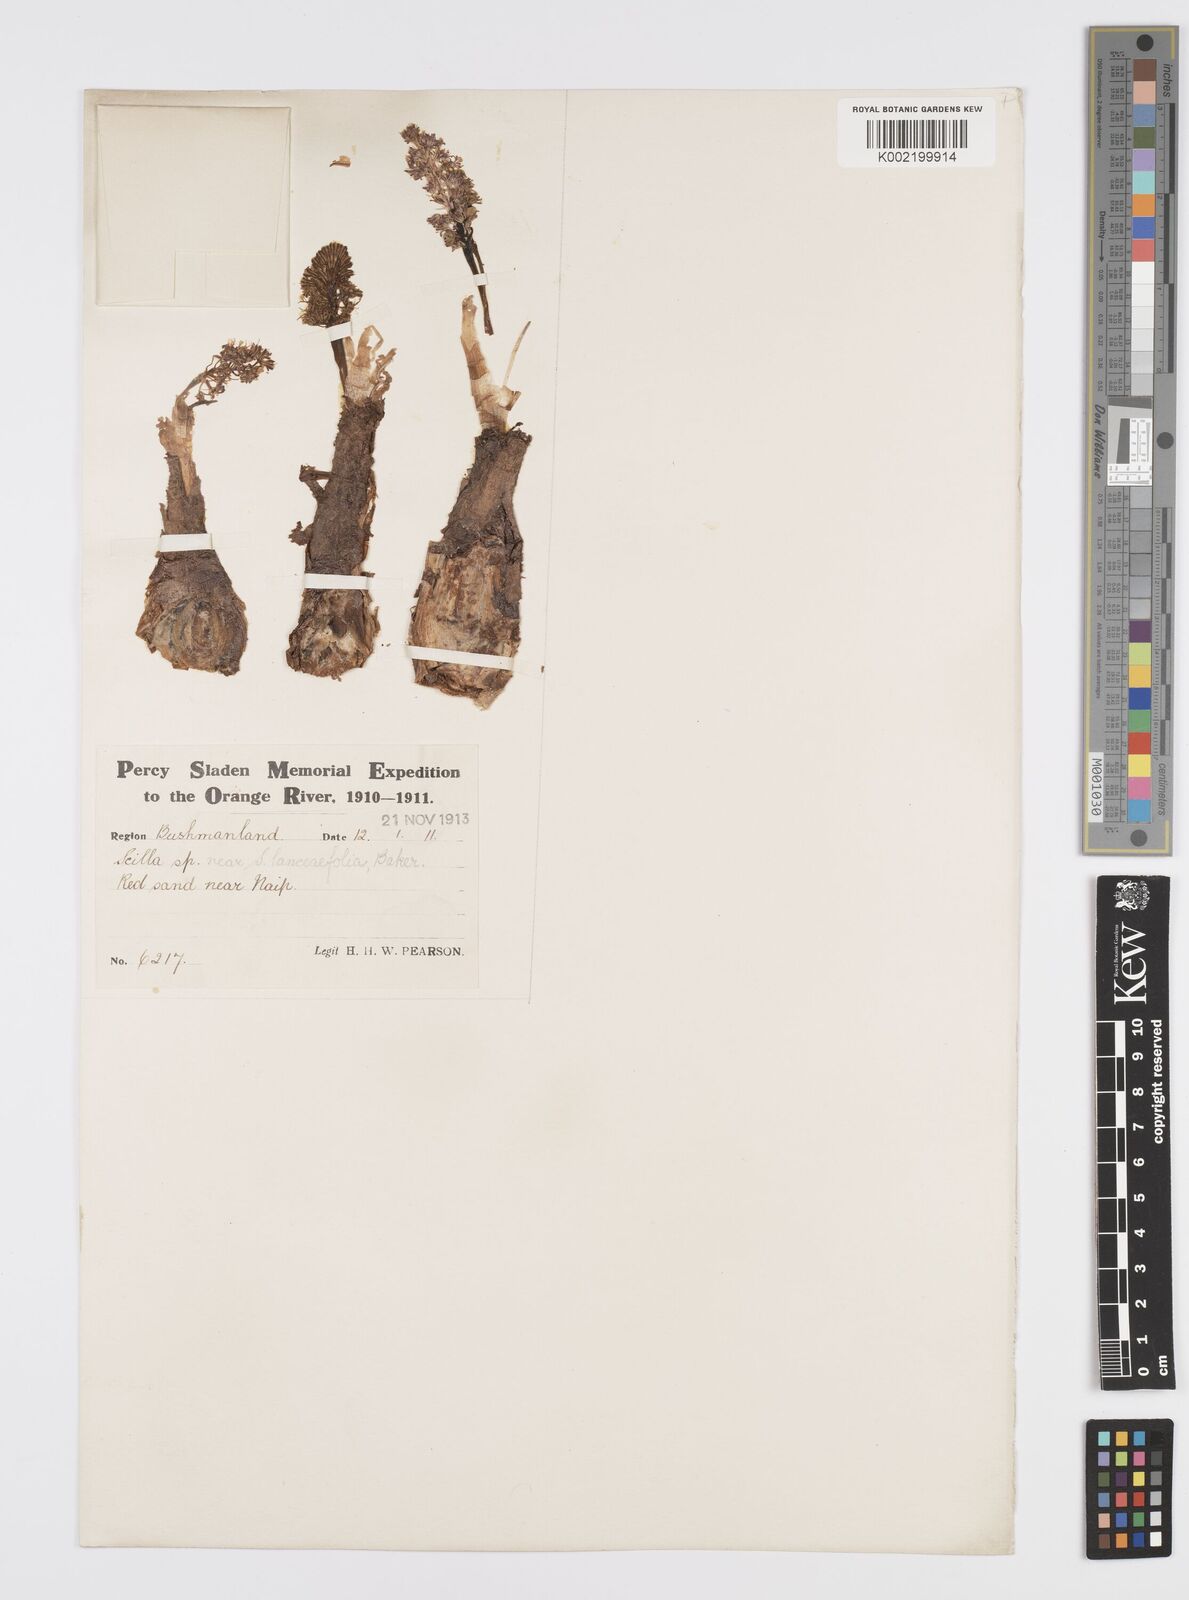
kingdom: Plantae
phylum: Tracheophyta
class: Liliopsida
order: Asparagales
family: Asparagaceae
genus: Ledebouria
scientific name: Ledebouria revoluta
